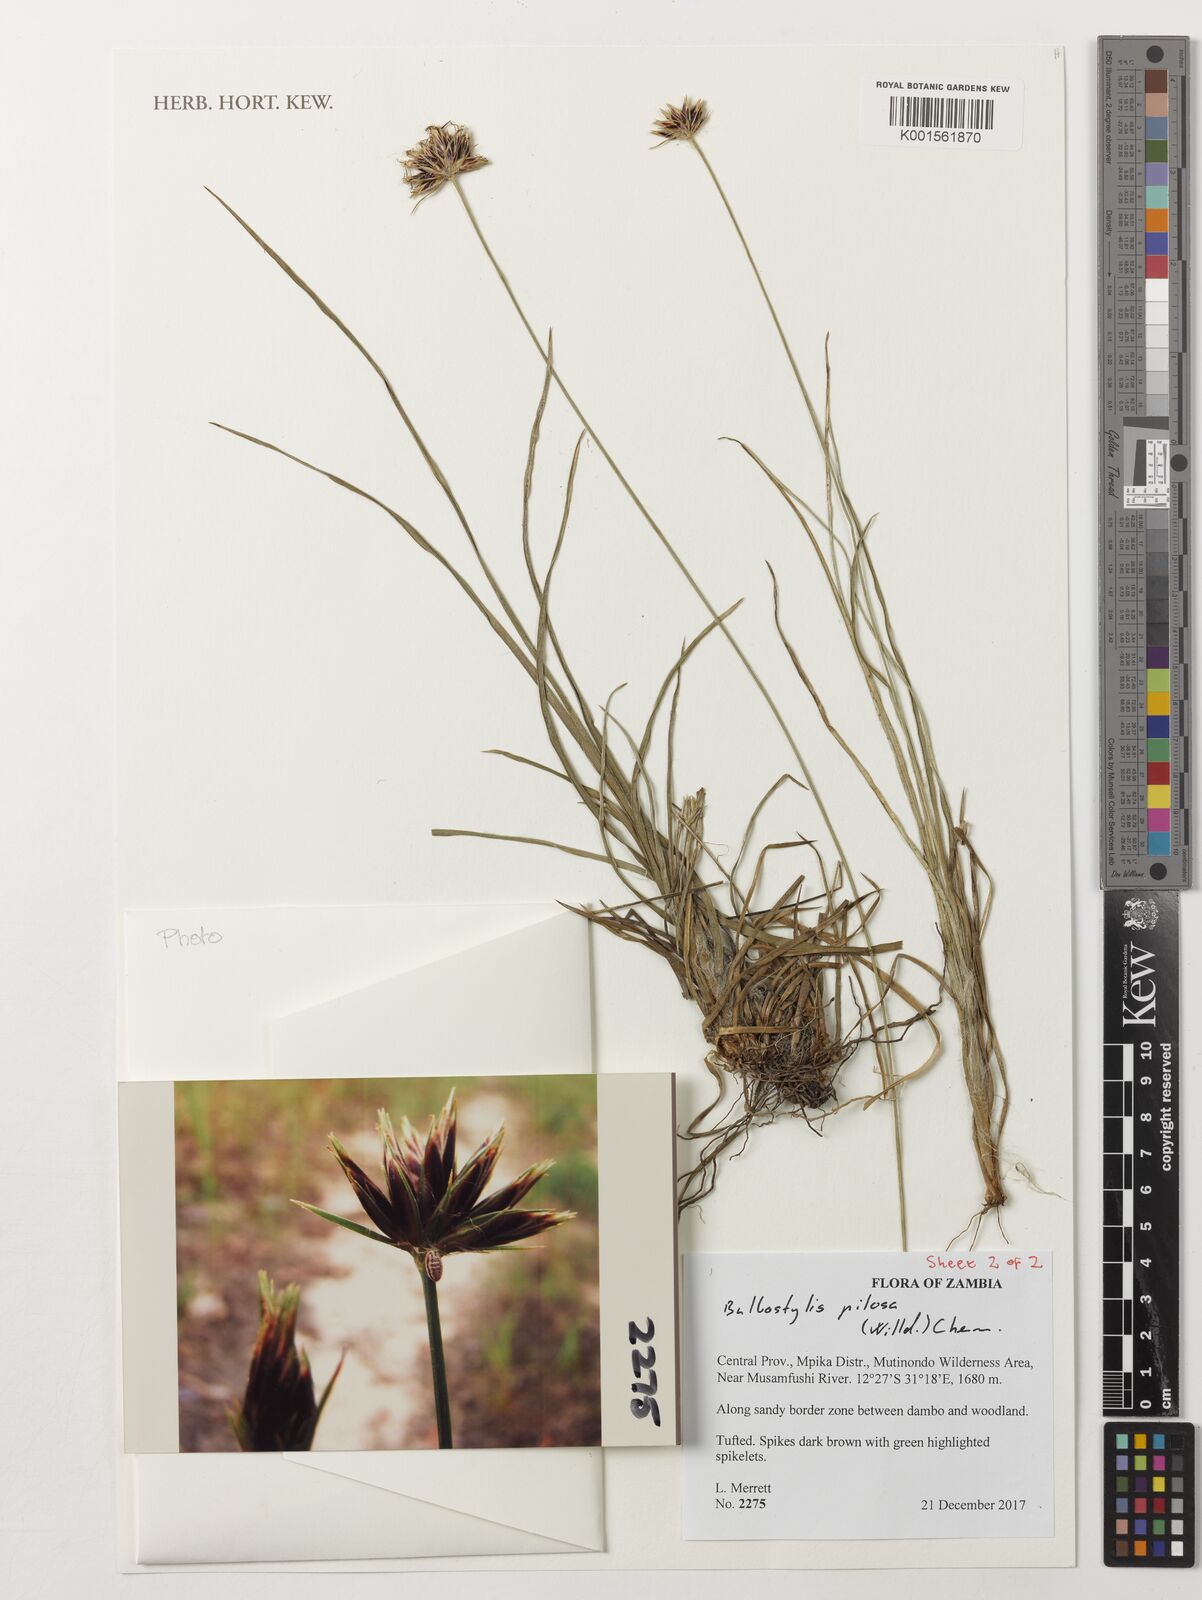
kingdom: Plantae
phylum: Tracheophyta
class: Liliopsida
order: Poales
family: Cyperaceae
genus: Bulbostylis
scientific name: Bulbostylis pilosa
